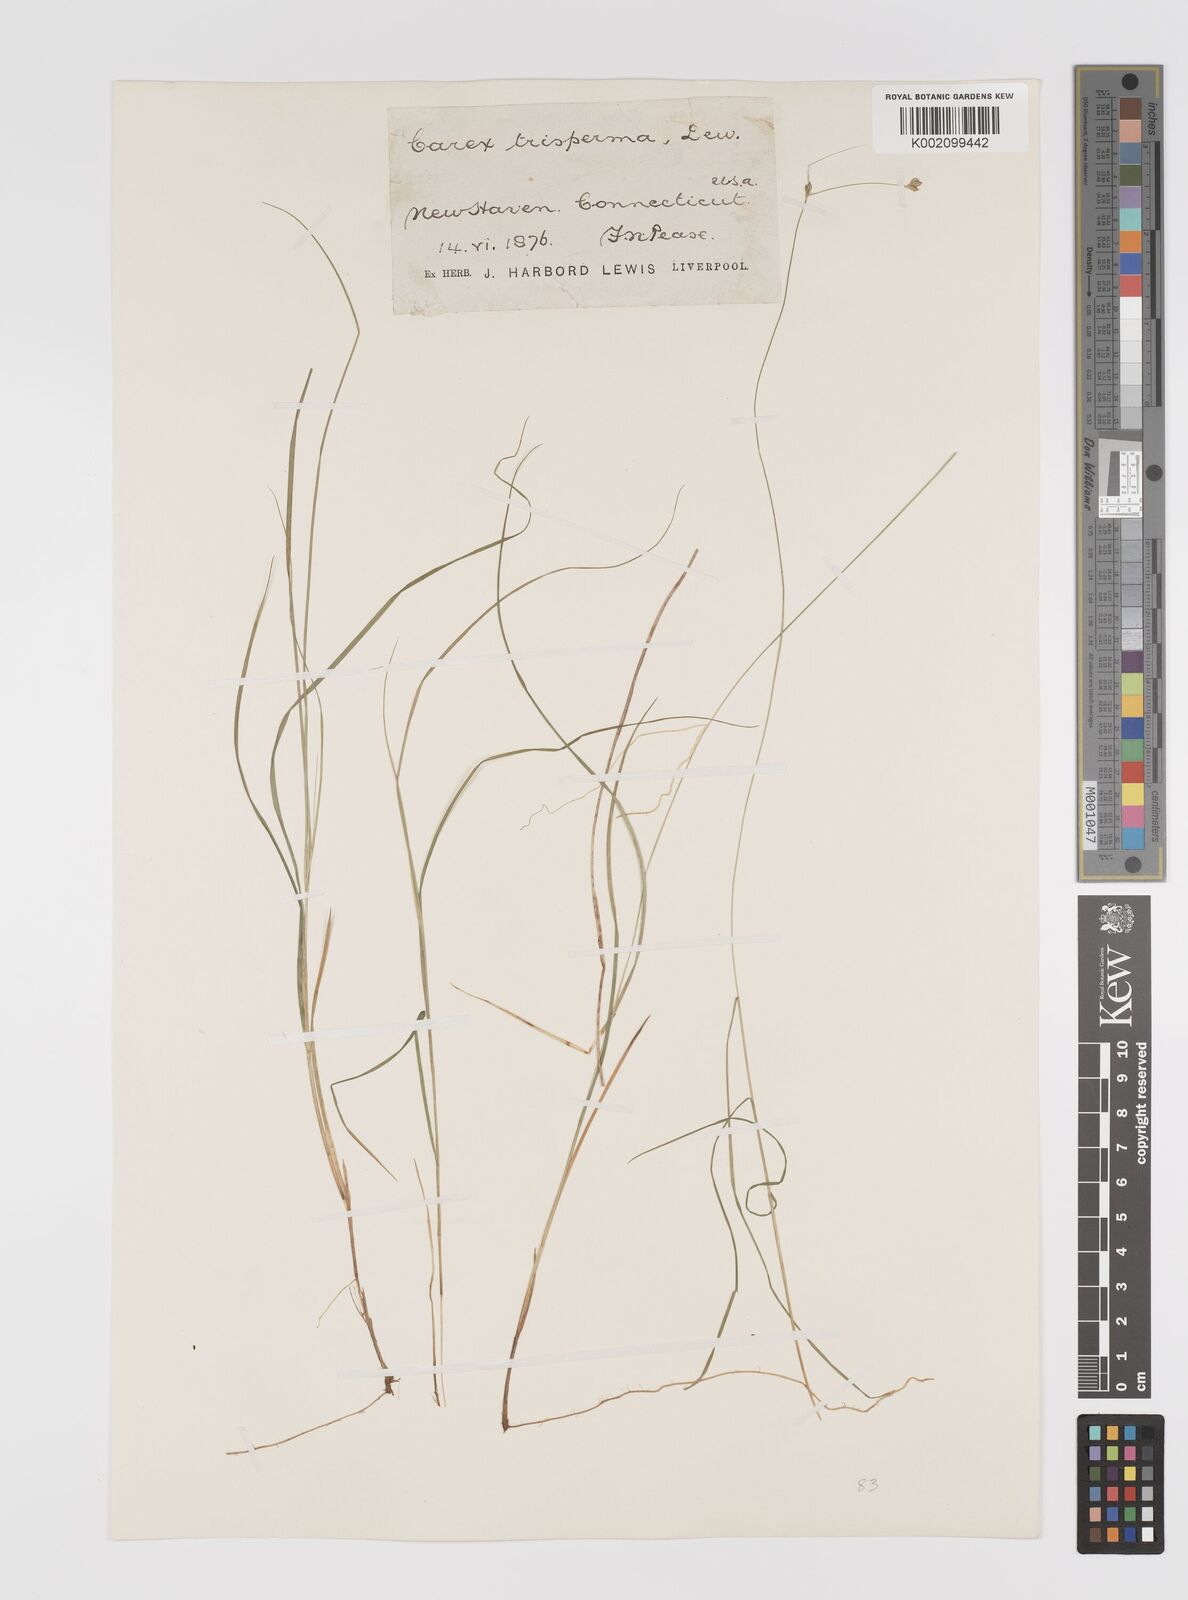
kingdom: Plantae
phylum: Tracheophyta
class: Liliopsida
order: Poales
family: Cyperaceae
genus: Carex
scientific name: Carex trisperma
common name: Three-seeded sedge
